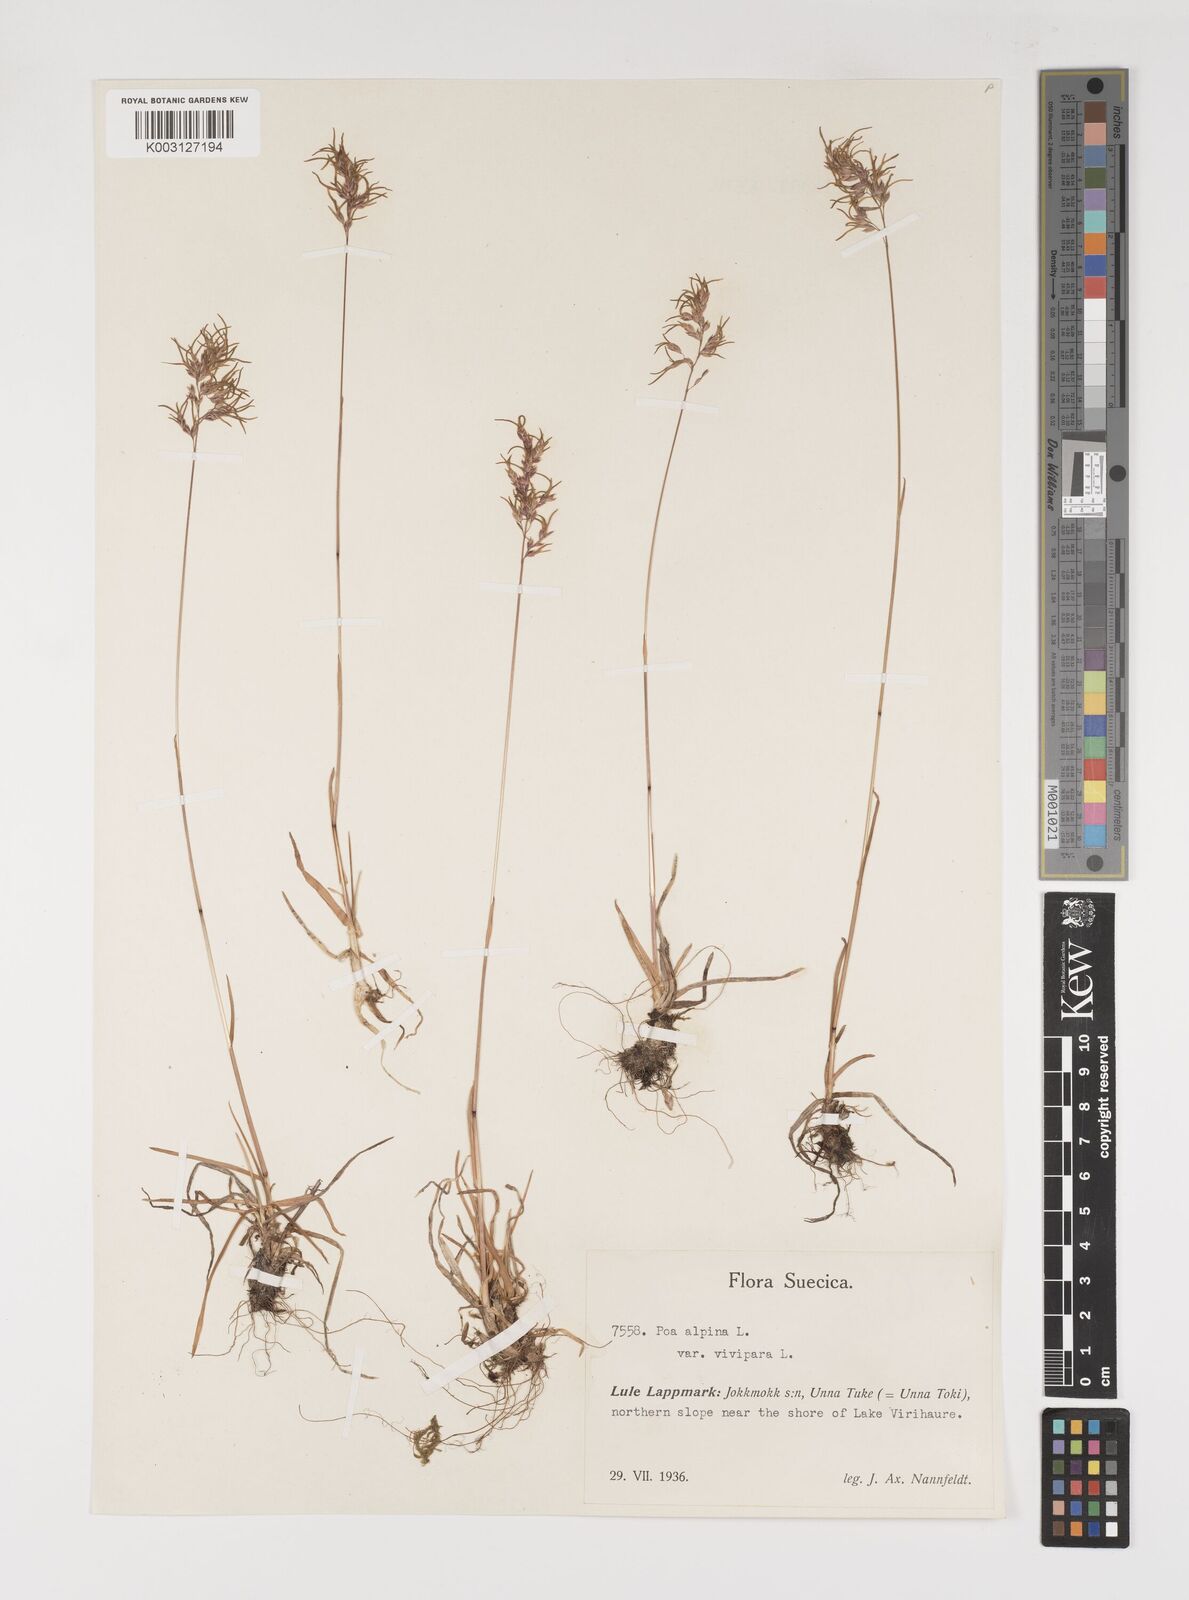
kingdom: Plantae
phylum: Tracheophyta
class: Liliopsida
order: Poales
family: Poaceae
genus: Poa
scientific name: Poa alpina
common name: Alpine bluegrass
